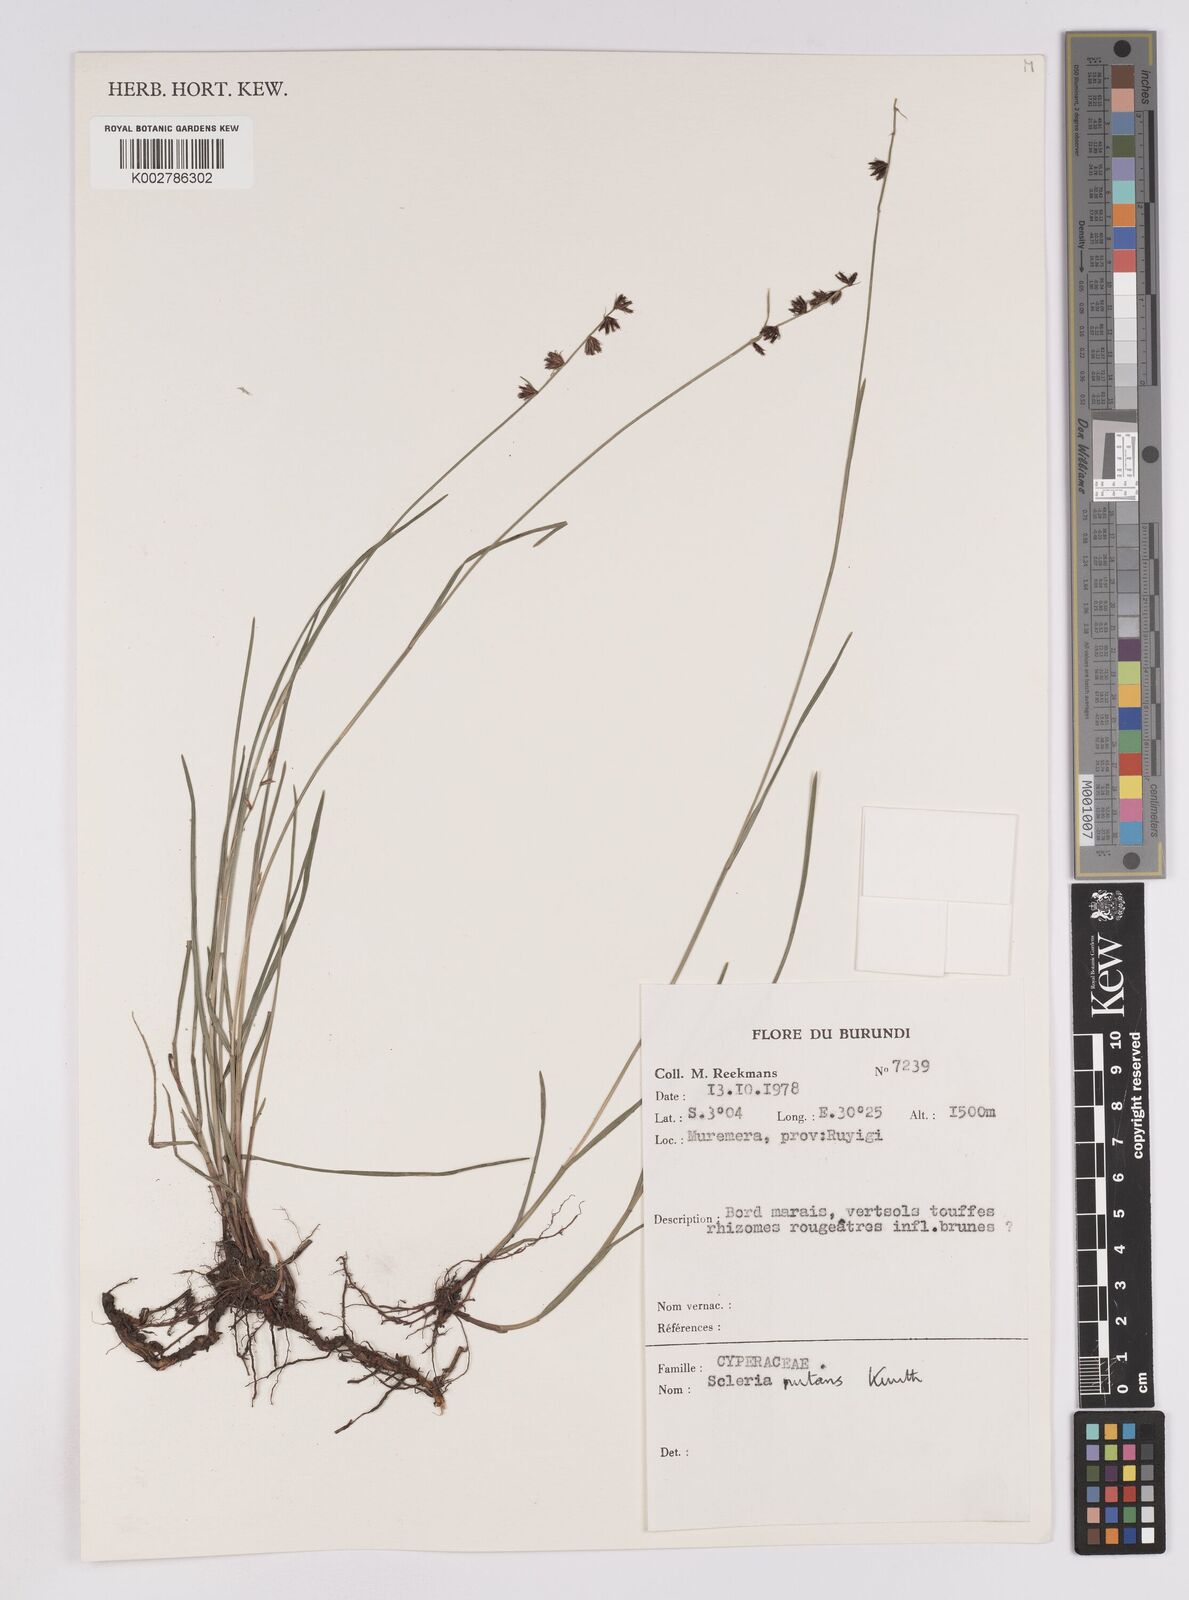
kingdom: Plantae
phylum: Tracheophyta
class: Liliopsida
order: Poales
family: Cyperaceae
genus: Scleria
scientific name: Scleria brownii
